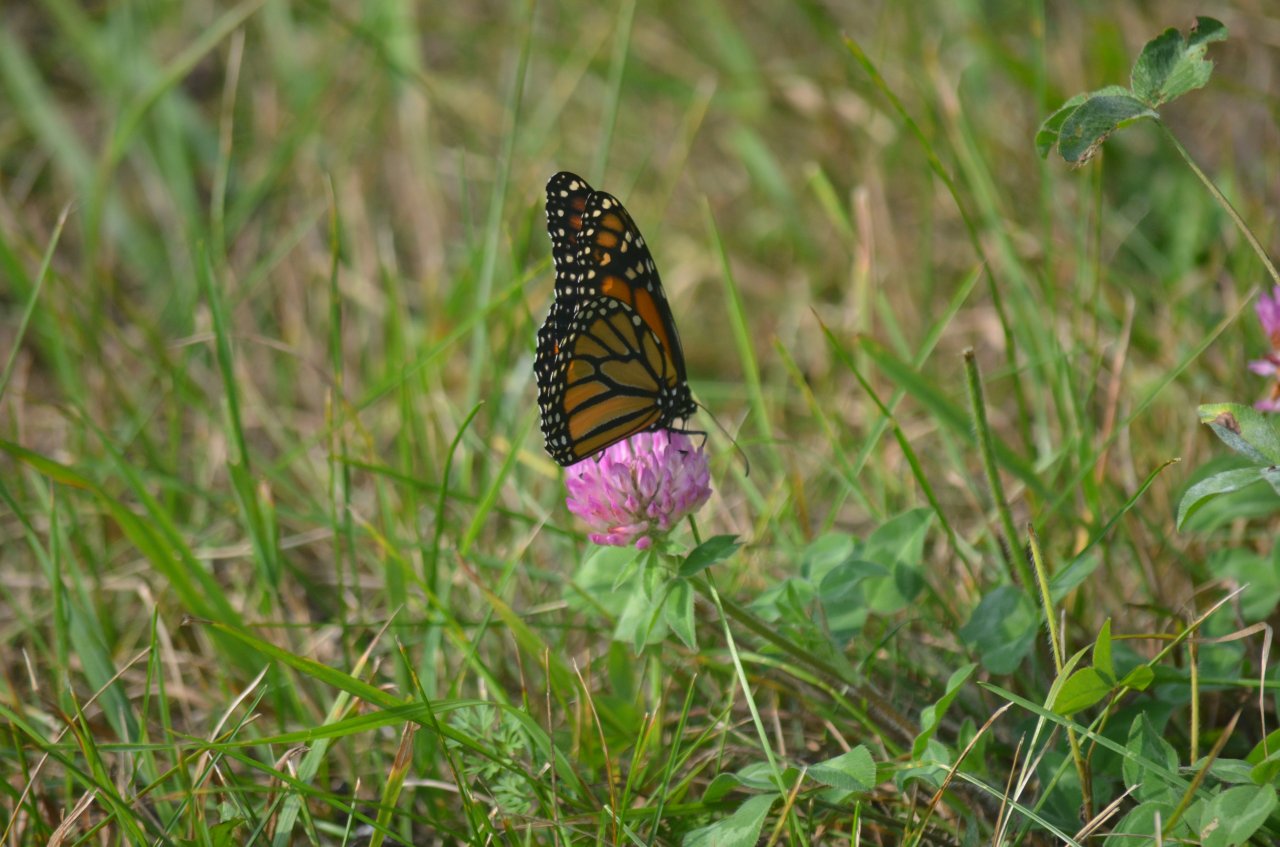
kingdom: Animalia
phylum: Arthropoda
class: Insecta
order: Lepidoptera
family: Nymphalidae
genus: Danaus
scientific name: Danaus plexippus
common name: Monarch
